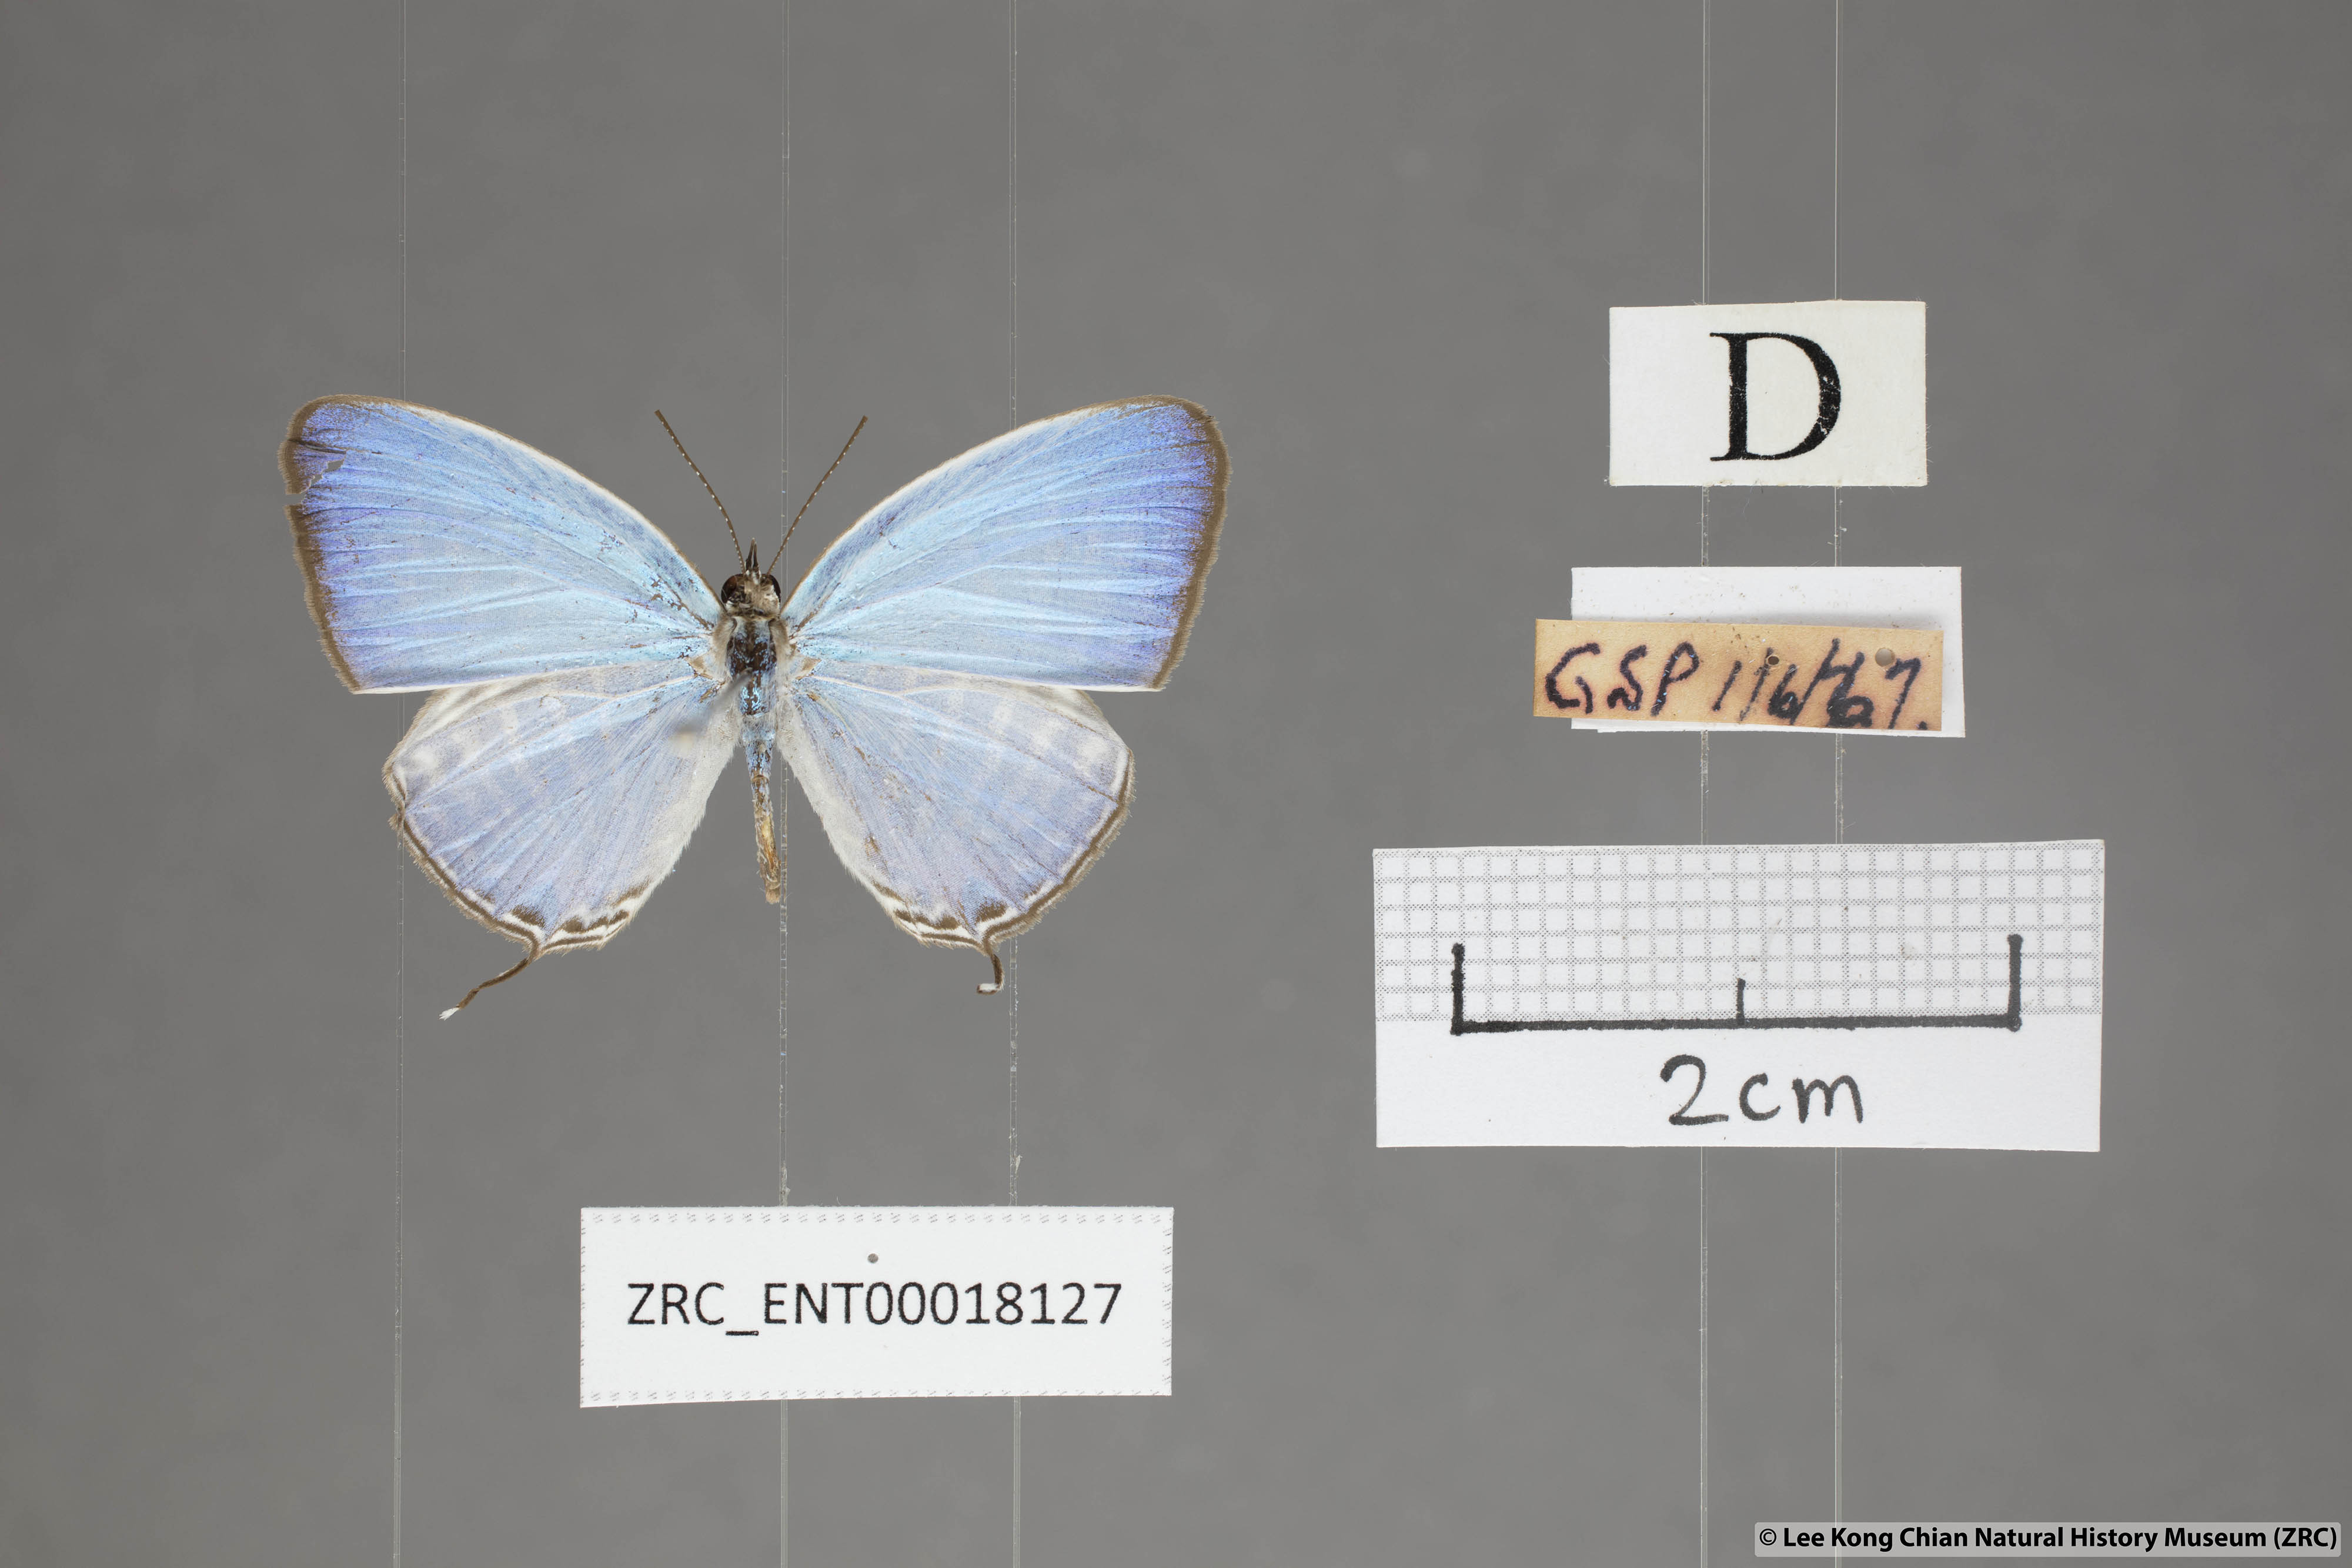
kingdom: Animalia
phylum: Arthropoda
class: Insecta
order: Lepidoptera
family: Lycaenidae
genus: Jamides
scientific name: Jamides malaccanus
